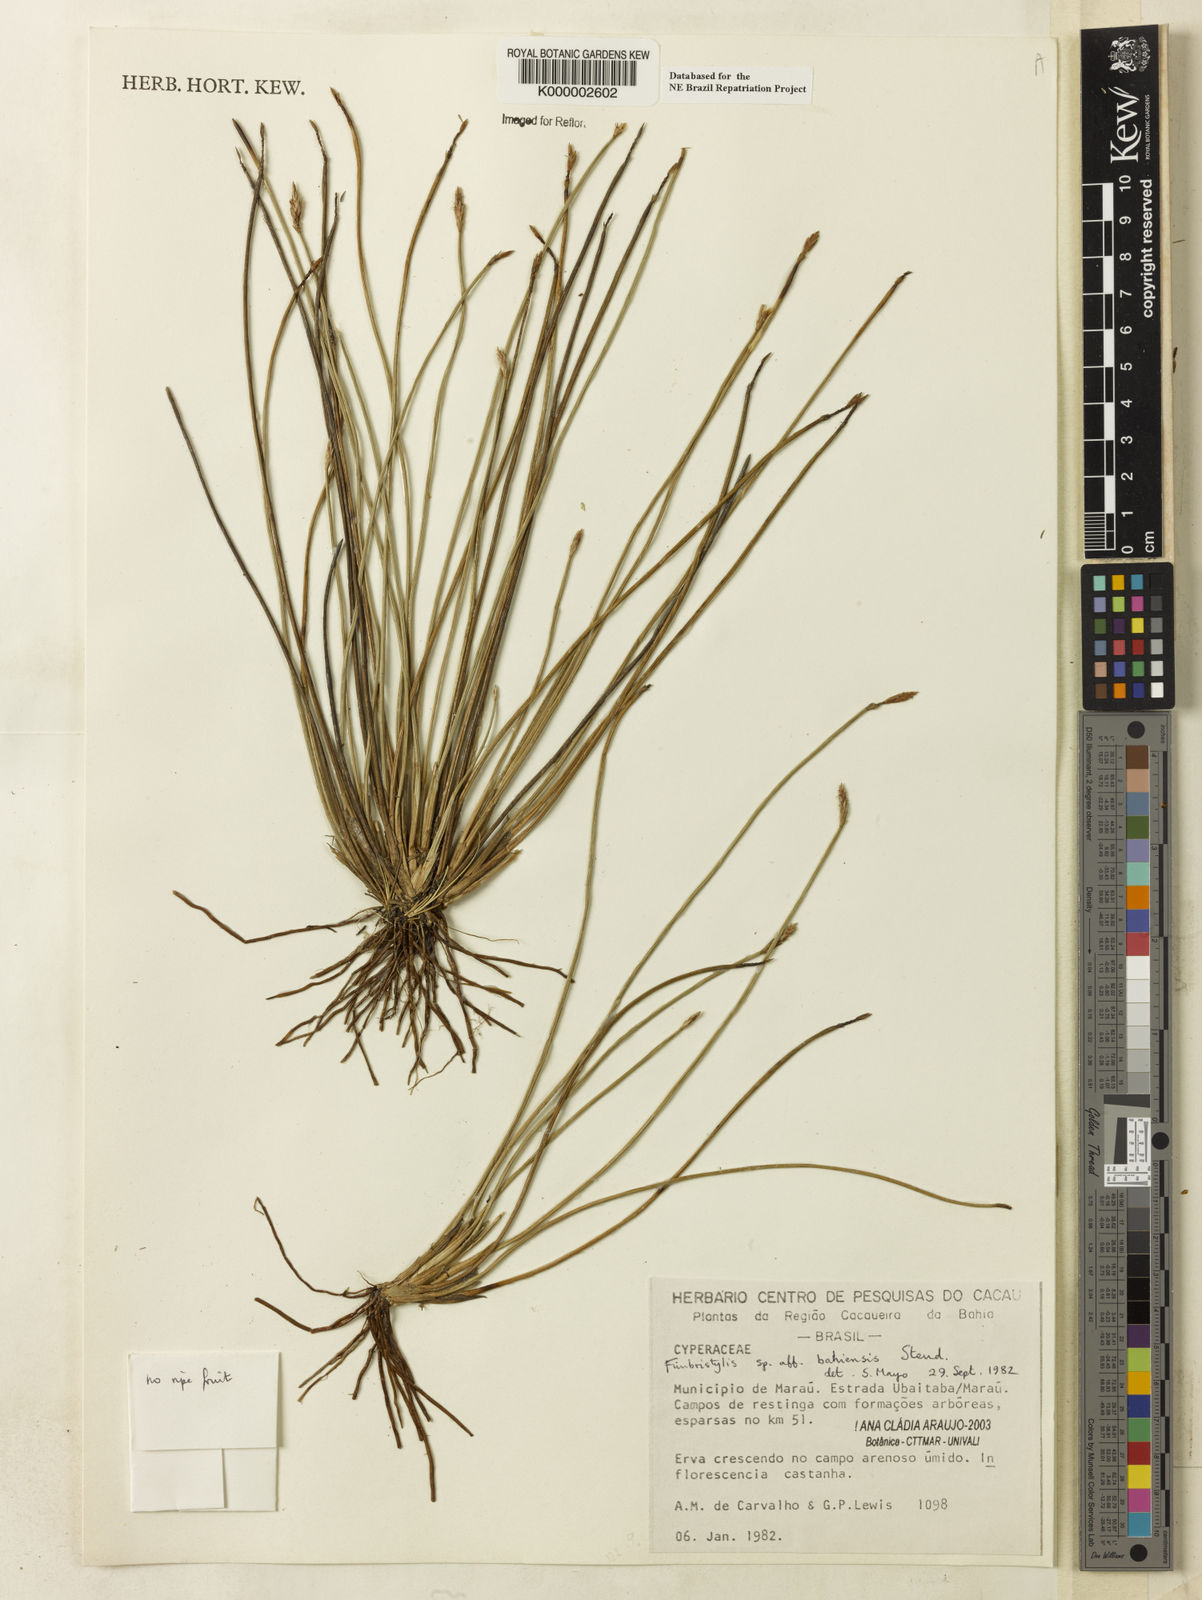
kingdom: Plantae
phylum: Tracheophyta
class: Liliopsida
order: Poales
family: Cyperaceae
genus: Fimbristylis
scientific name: Fimbristylis bahiensis
